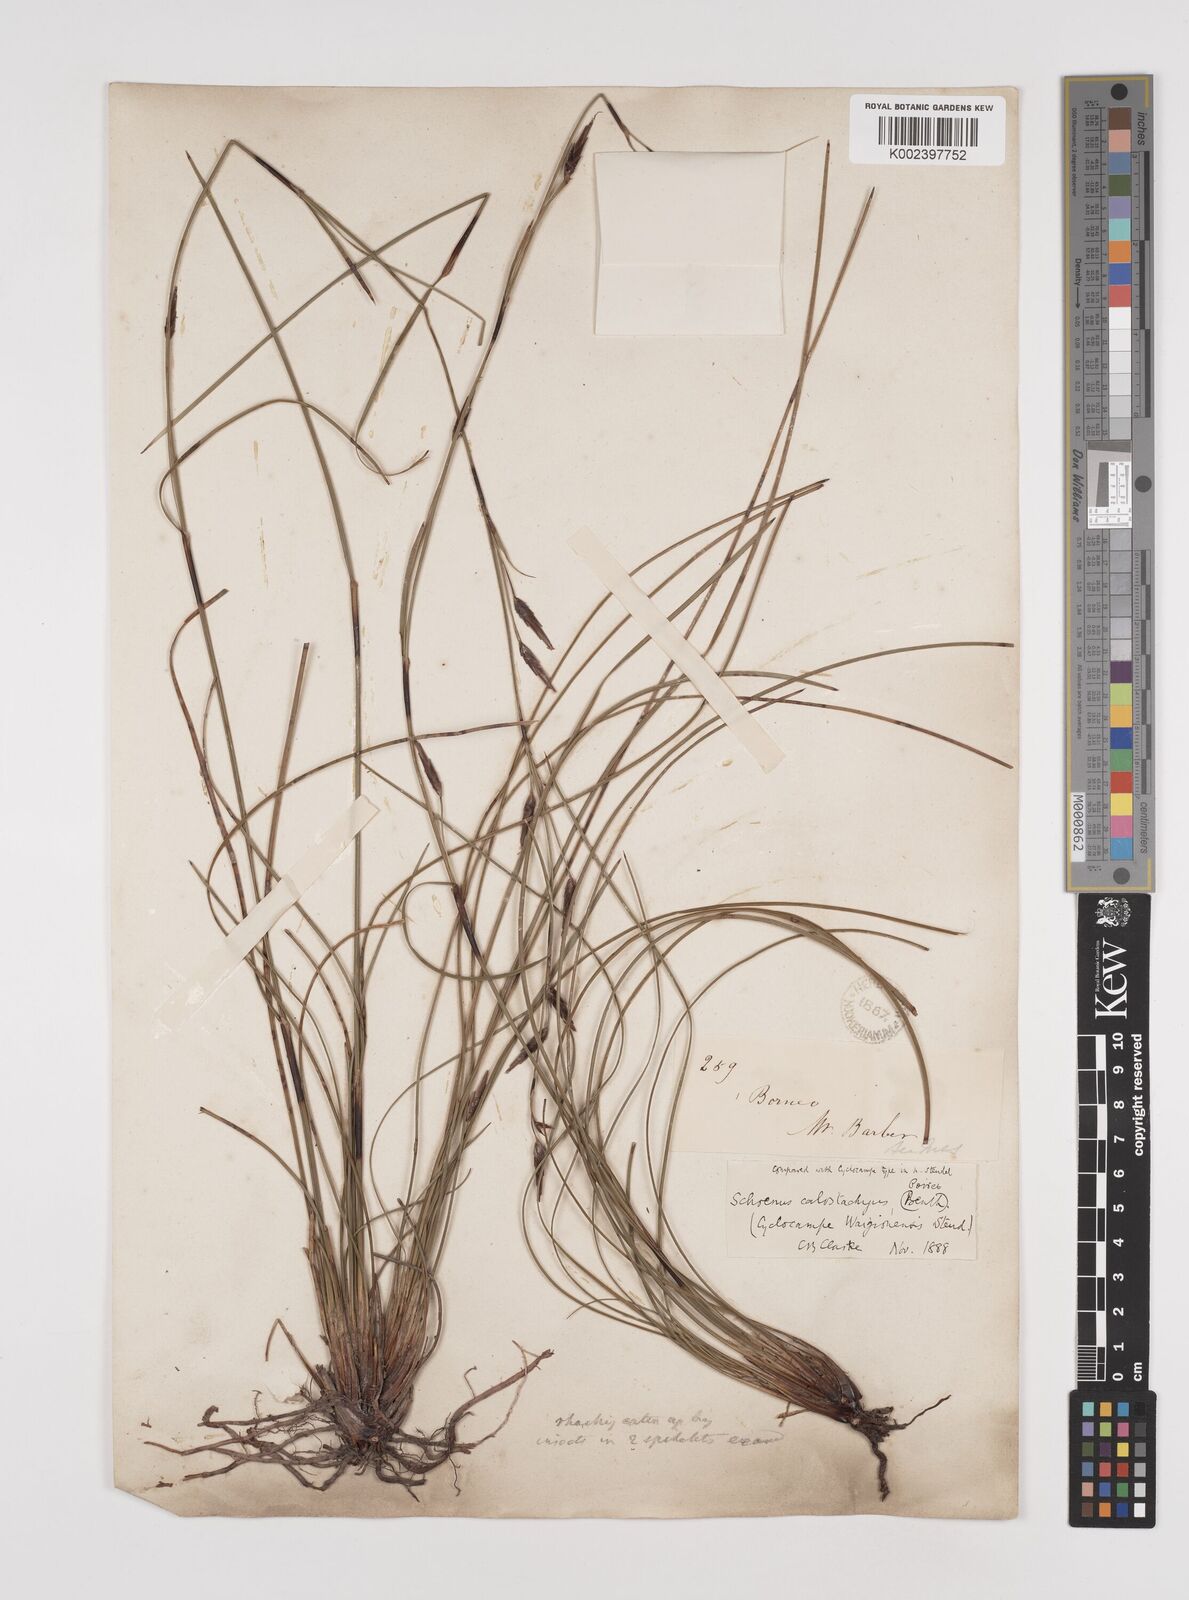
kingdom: Plantae
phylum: Tracheophyta
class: Liliopsida
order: Poales
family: Cyperaceae
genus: Schoenus
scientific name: Schoenus calostachyus
